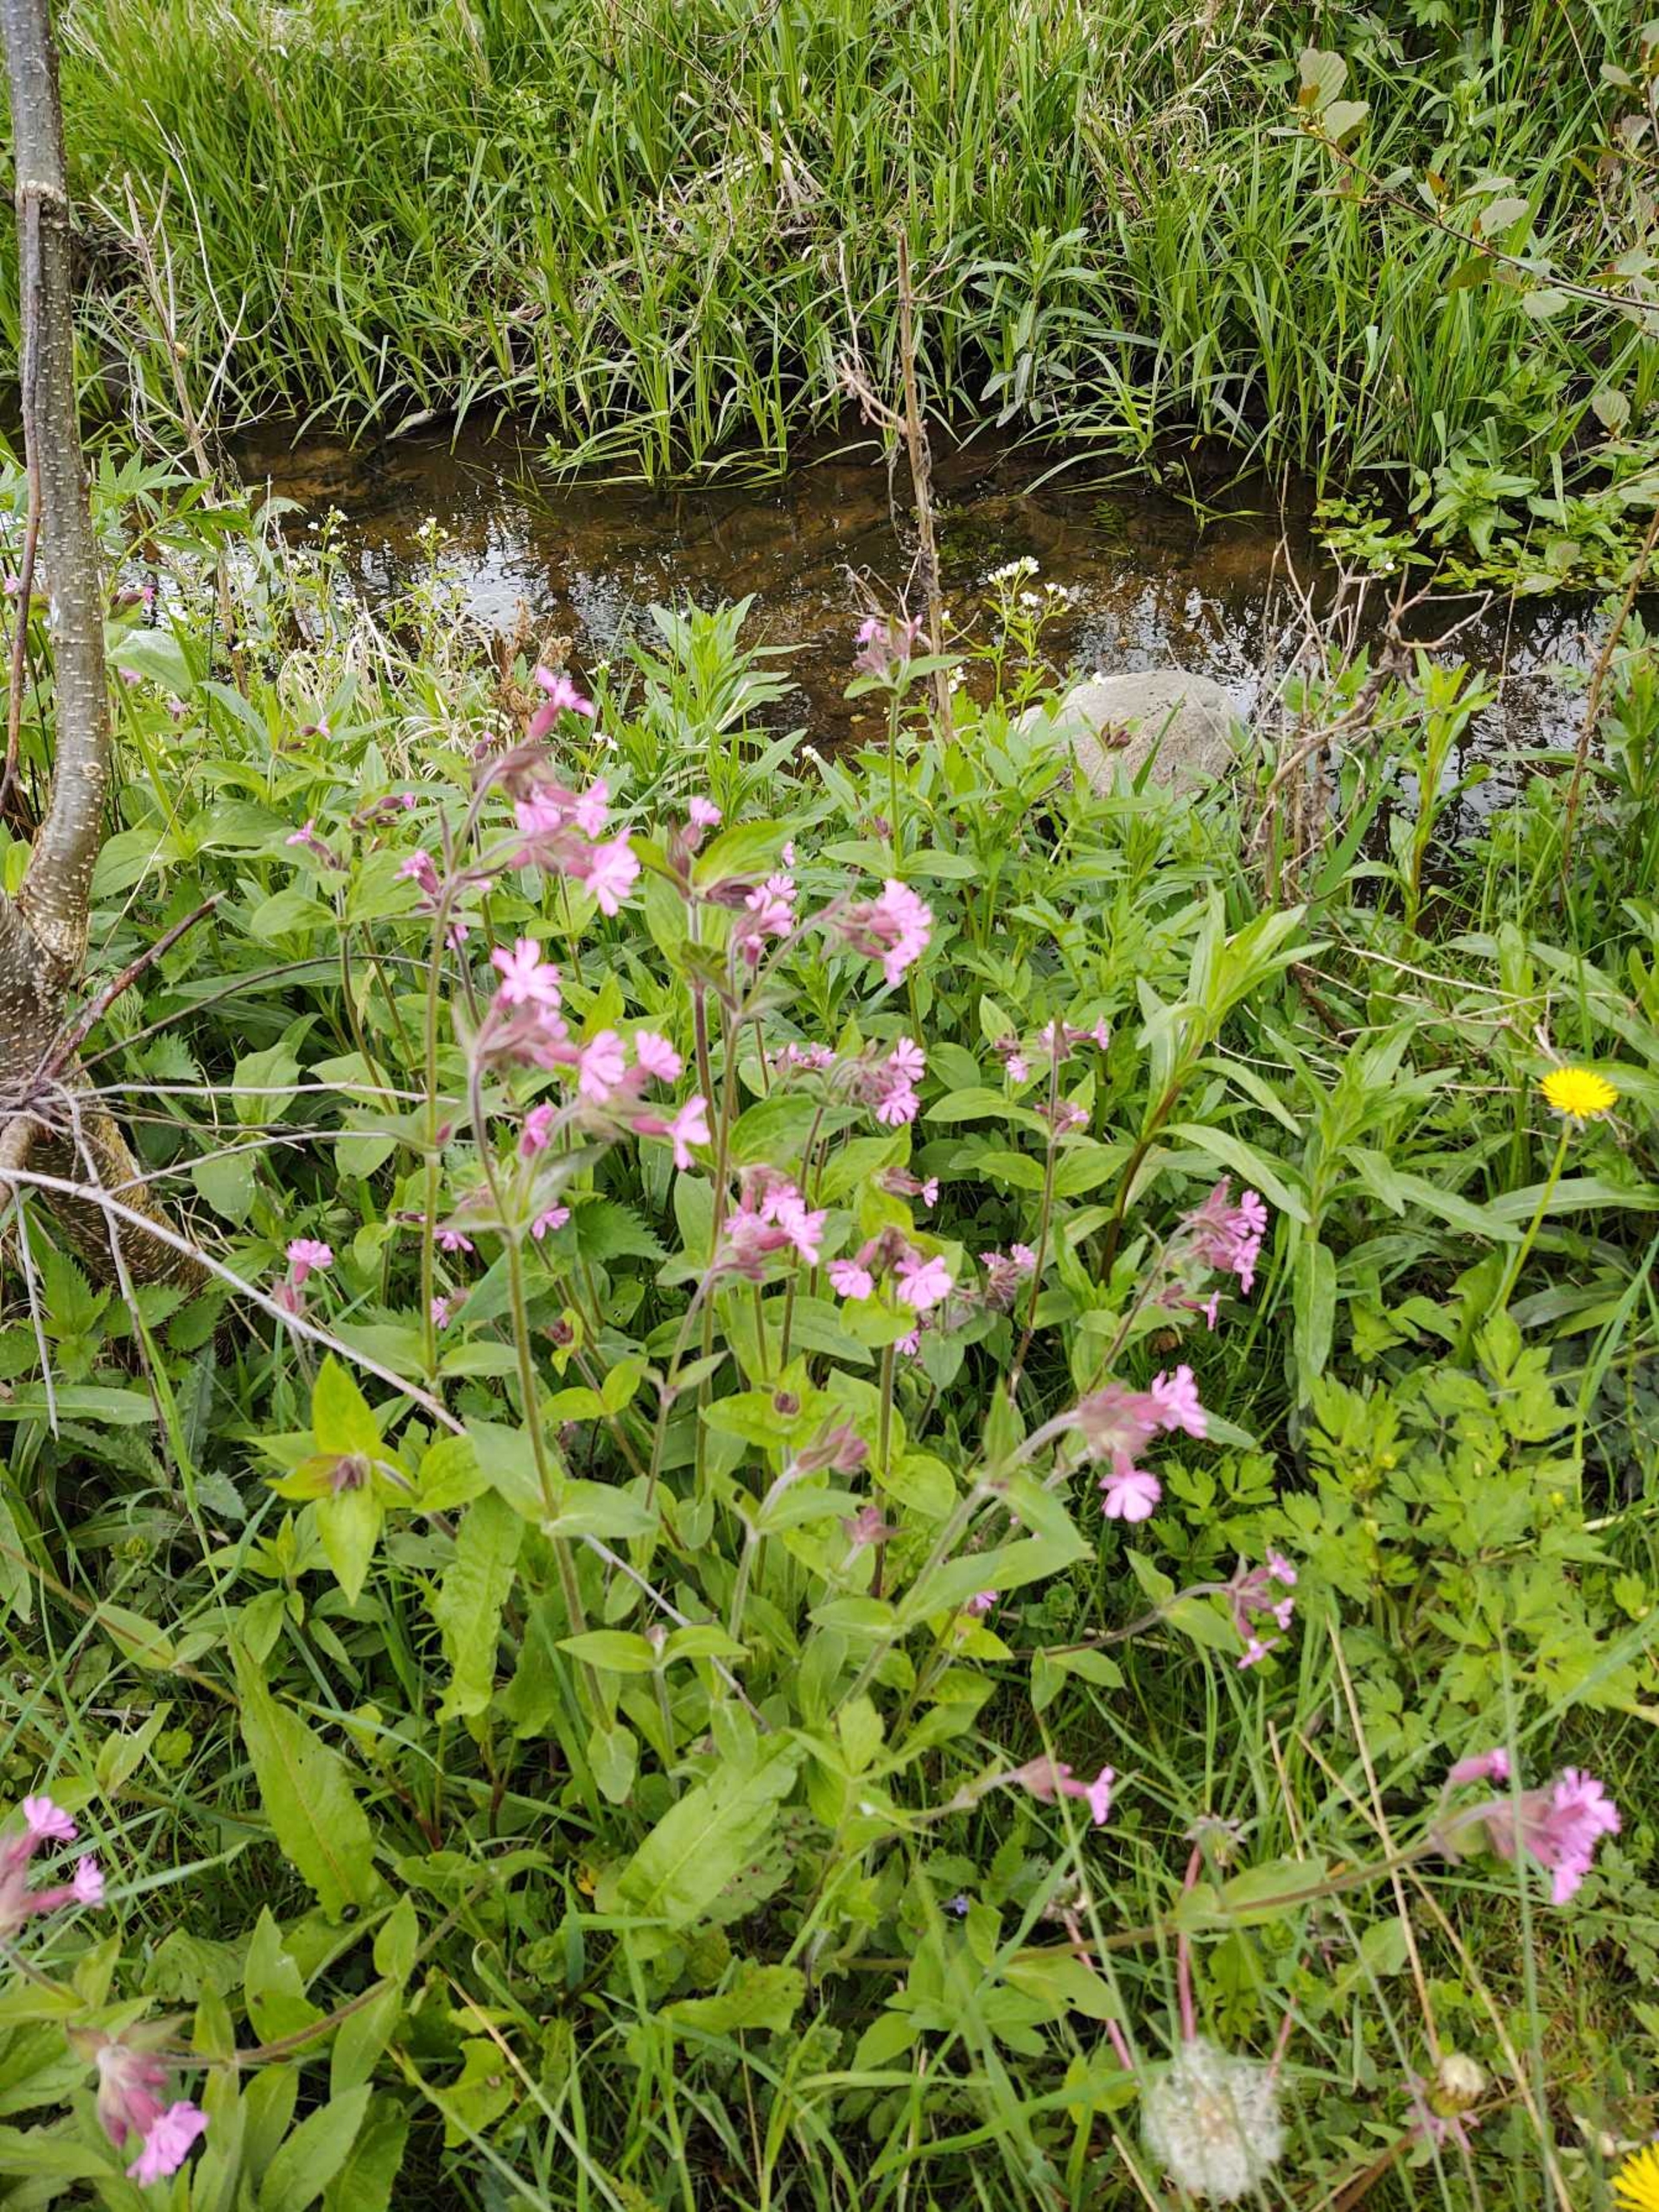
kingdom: Plantae
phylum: Tracheophyta
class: Magnoliopsida
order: Caryophyllales
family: Caryophyllaceae
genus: Silene
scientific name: Silene dioica
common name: Dagpragtstjerne
